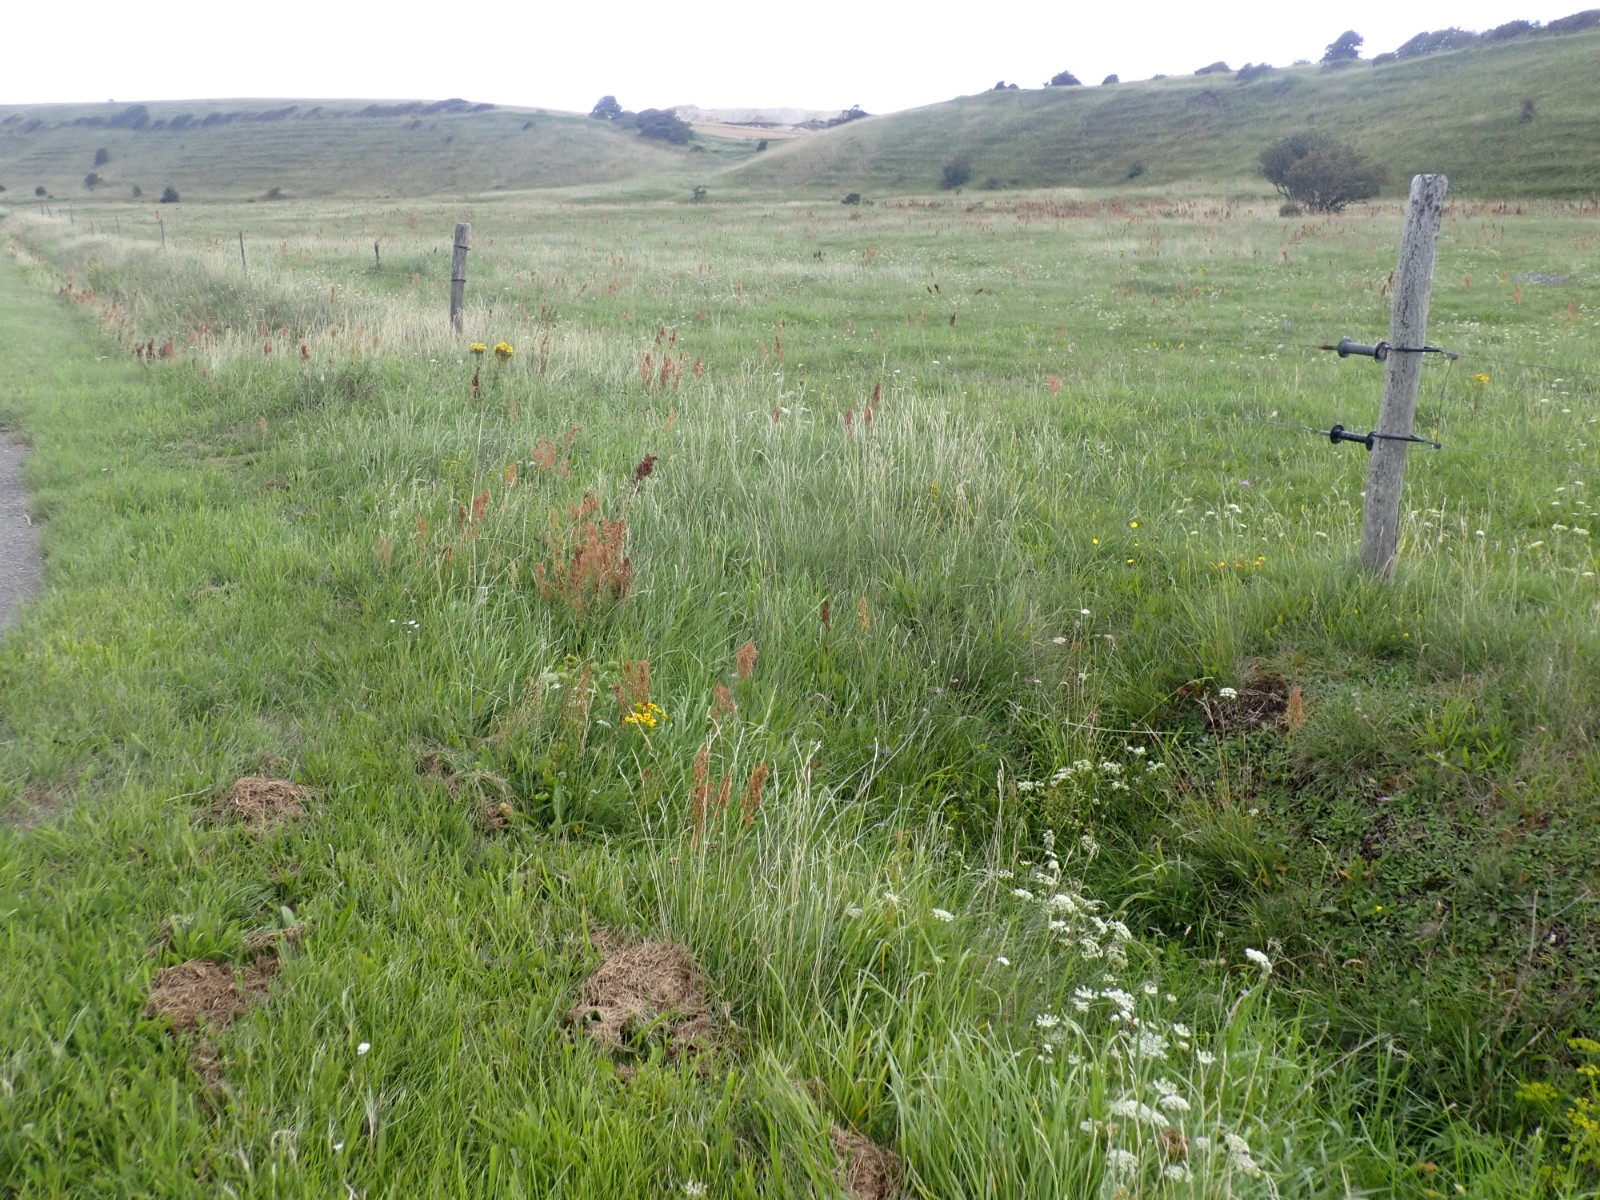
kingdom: Fungi
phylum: Basidiomycota
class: Agaricomycetes
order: Agaricales
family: Hygrophoraceae
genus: Hygrocybe
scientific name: Hygrocybe acutoconica
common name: Konrads vokshat
